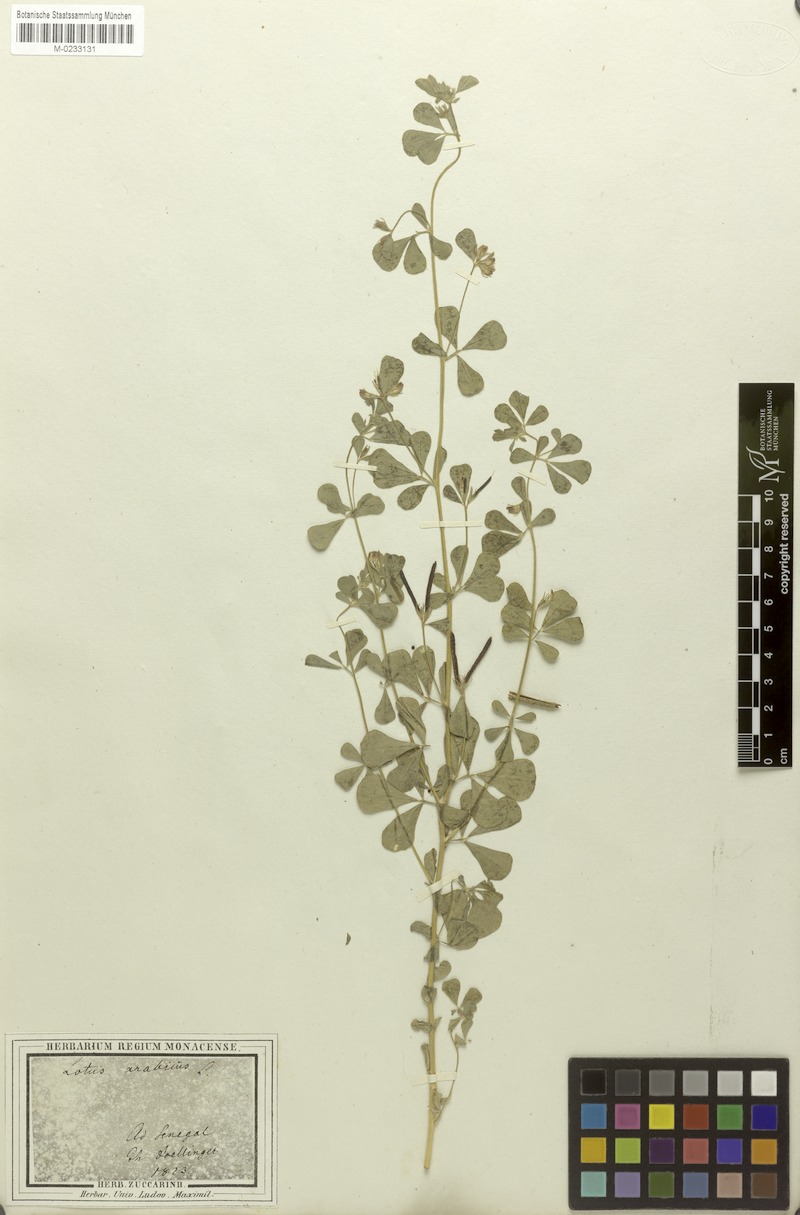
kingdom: Plantae
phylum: Tracheophyta
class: Magnoliopsida
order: Fabales
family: Fabaceae
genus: Lotus
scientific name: Lotus arabicus
